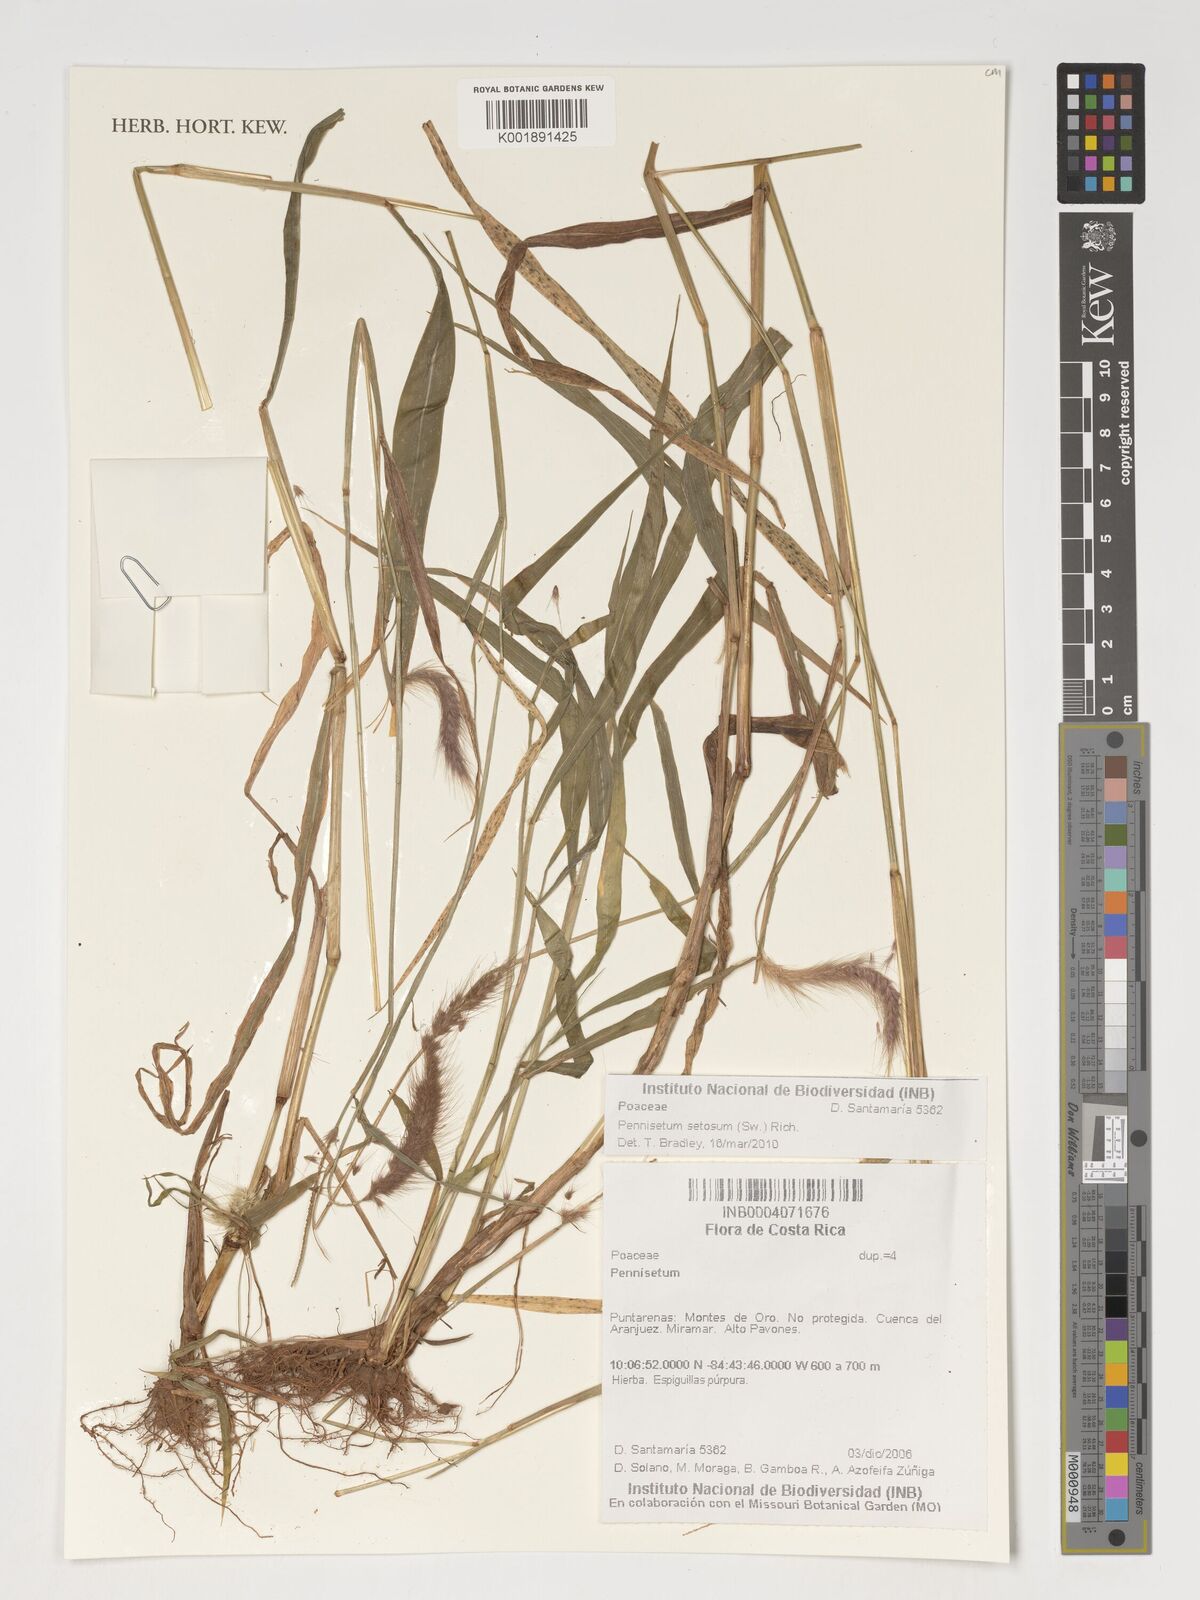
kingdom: Plantae
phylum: Tracheophyta
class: Liliopsida
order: Poales
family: Poaceae
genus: Cenchrus
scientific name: Cenchrus Pennisetum spec
